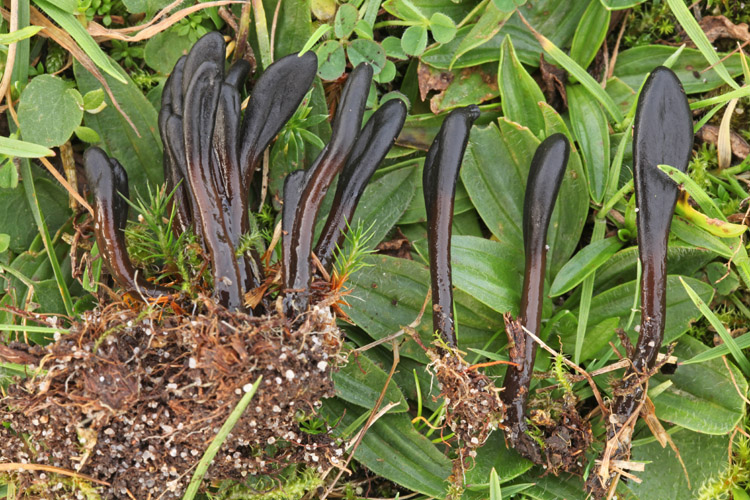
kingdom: Fungi
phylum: Ascomycota
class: Geoglossomycetes
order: Geoglossales
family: Geoglossaceae
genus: Glutinoglossum
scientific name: Glutinoglossum glutinosum
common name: slimet jordtunge
